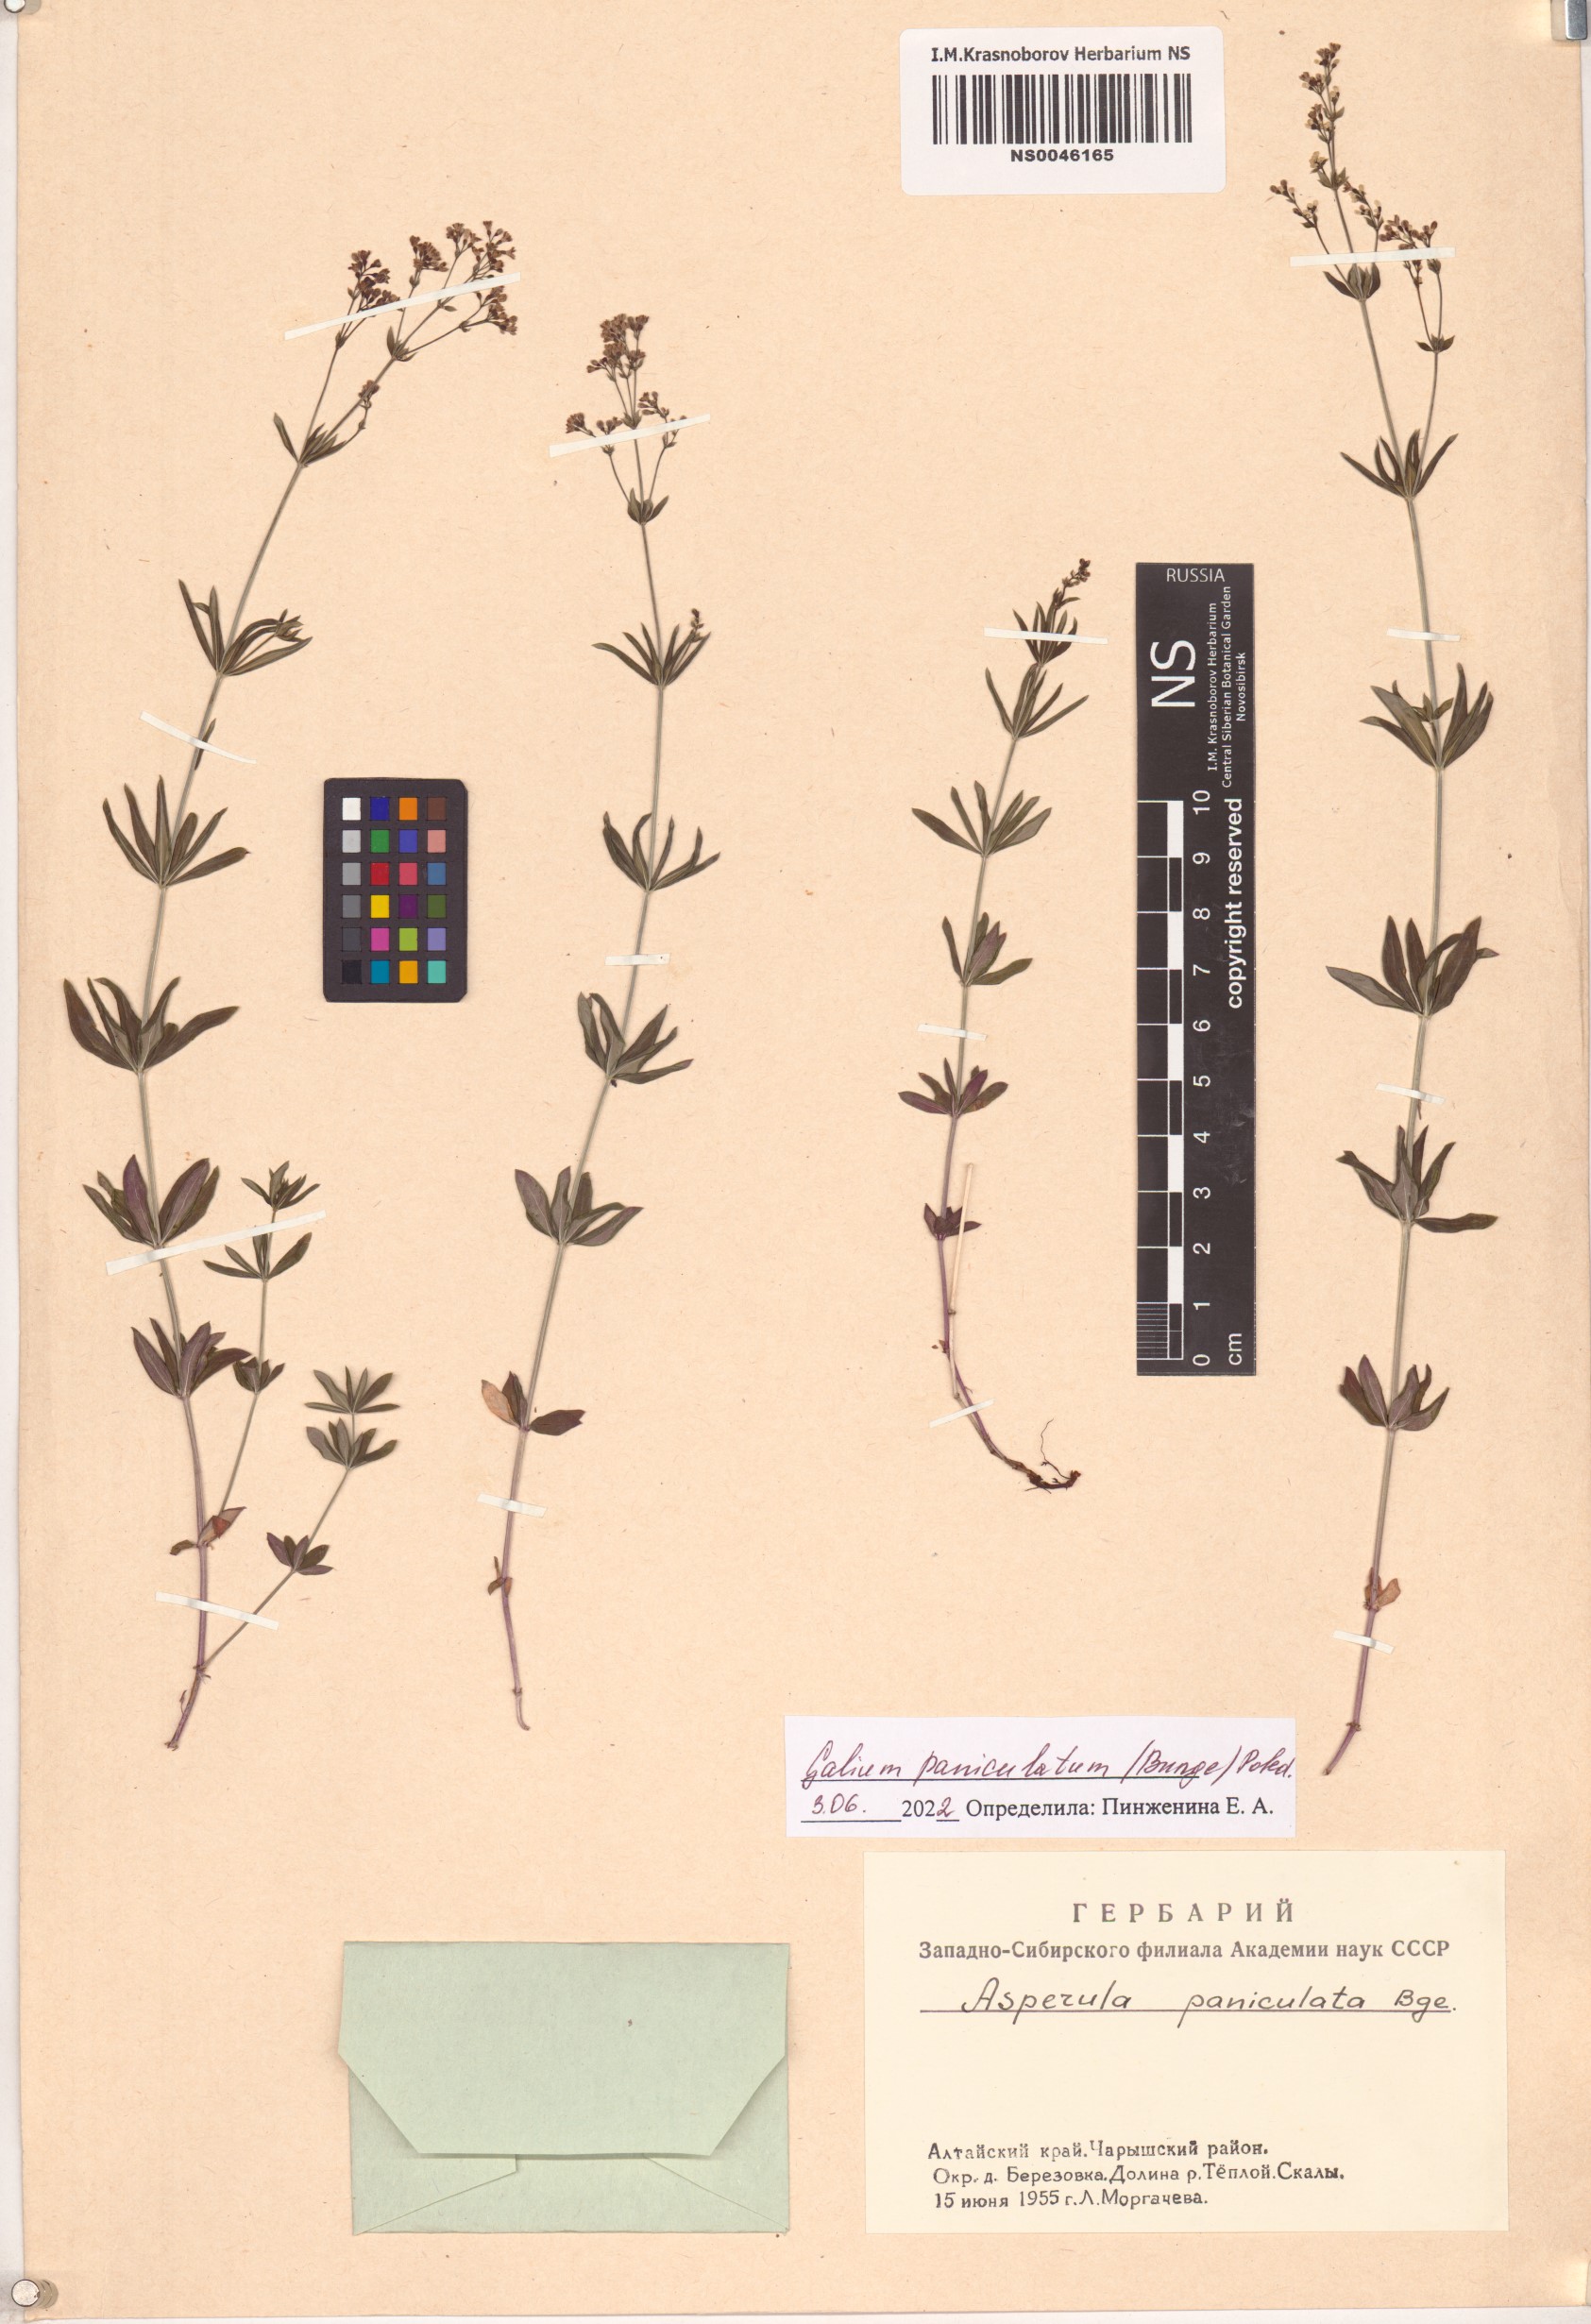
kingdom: Plantae
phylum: Tracheophyta
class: Magnoliopsida
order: Gentianales
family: Rubiaceae
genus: Galium
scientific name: Galium paniculatum
